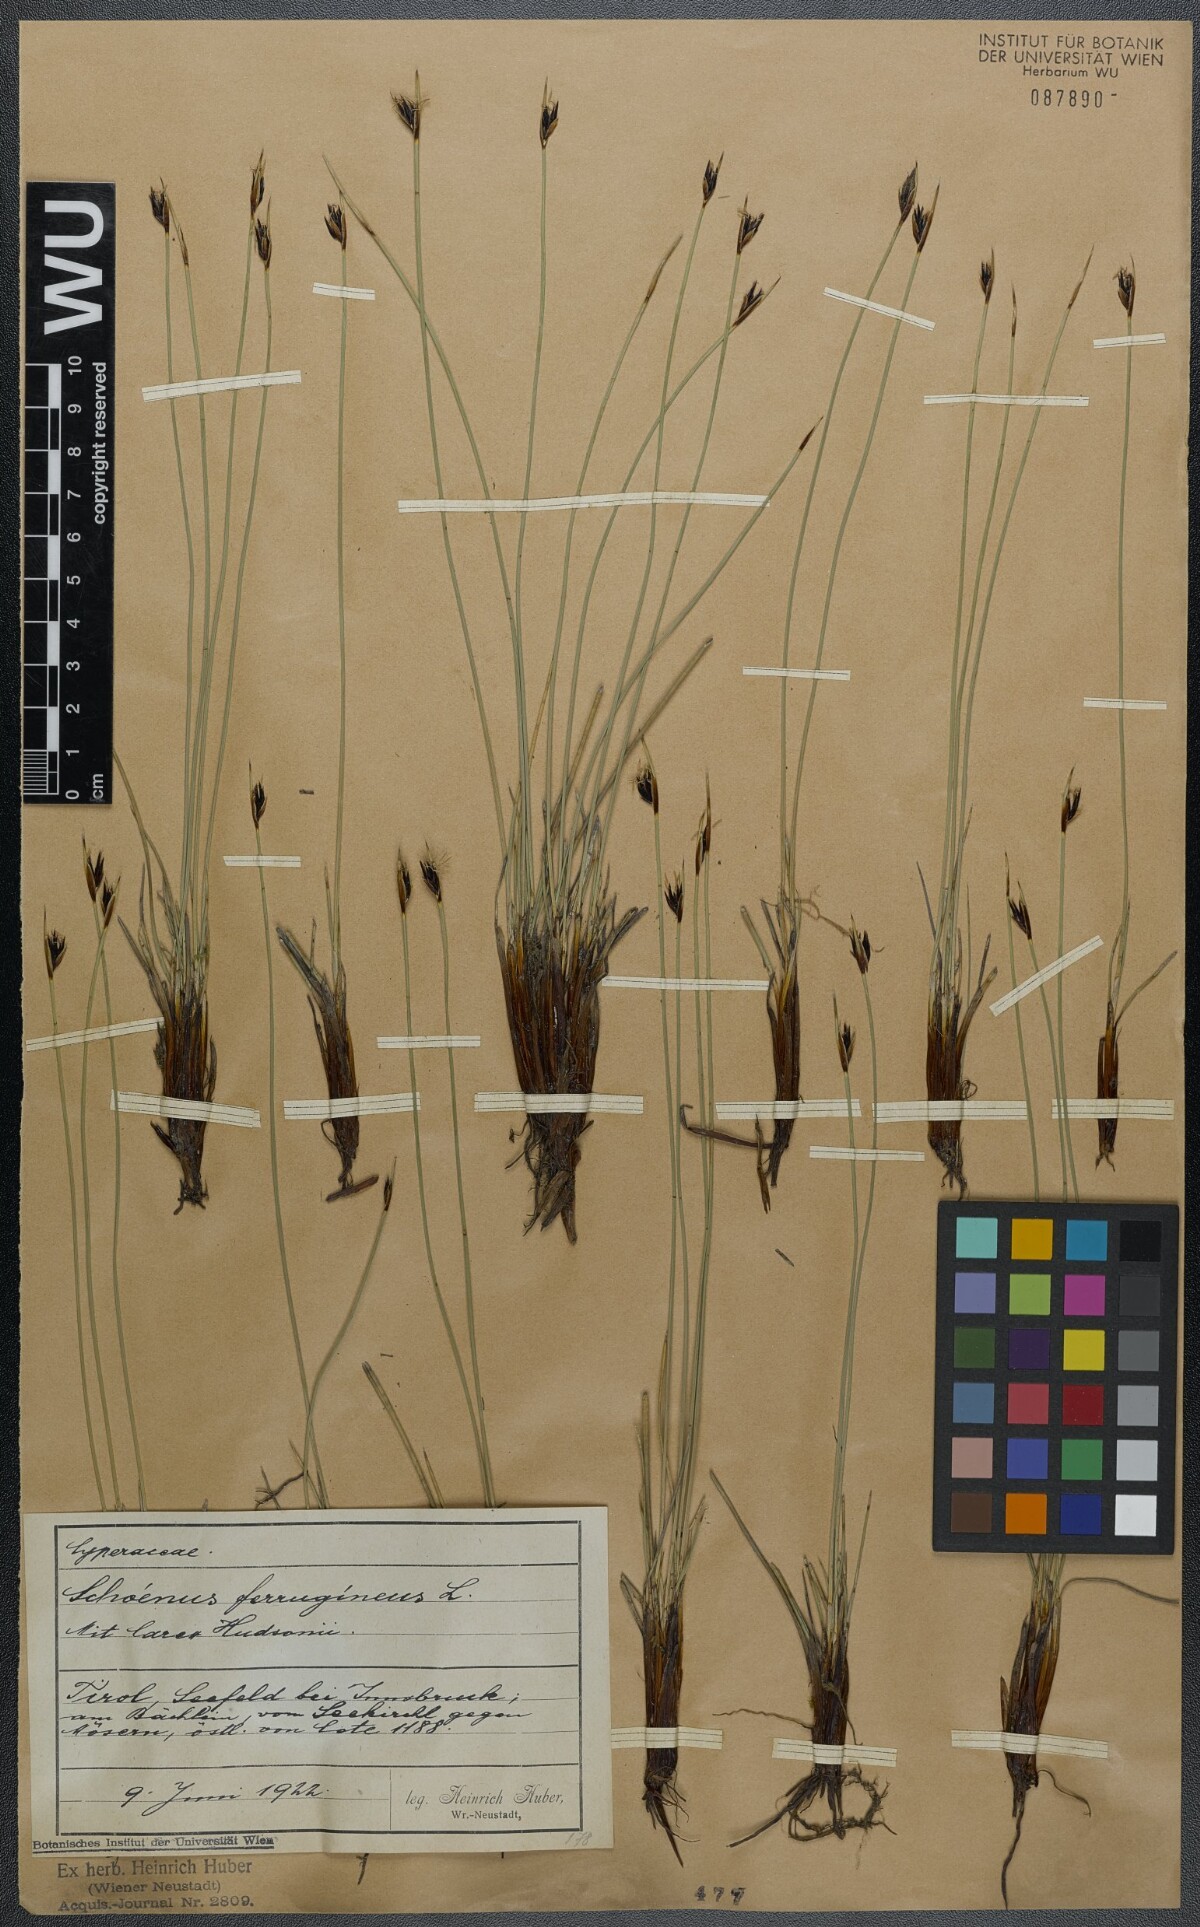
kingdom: Plantae
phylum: Tracheophyta
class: Liliopsida
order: Poales
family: Cyperaceae
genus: Schoenus
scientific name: Schoenus ferrugineus
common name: Brown bog-rush
